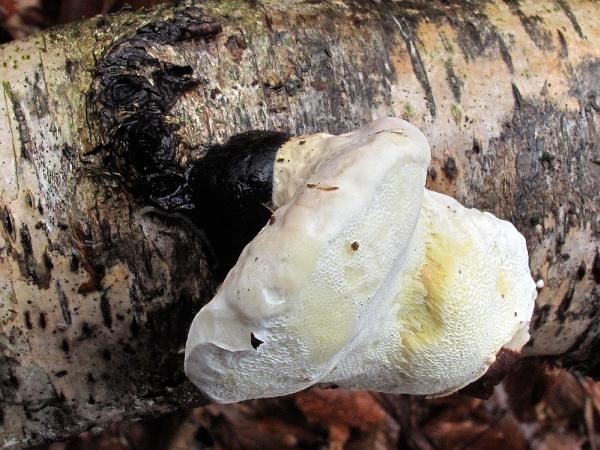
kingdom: Fungi
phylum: Basidiomycota
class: Agaricomycetes
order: Polyporales
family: Fomitopsidaceae
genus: Fomitopsis
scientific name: Fomitopsis pinicola
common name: randbæltet hovporesvamp
